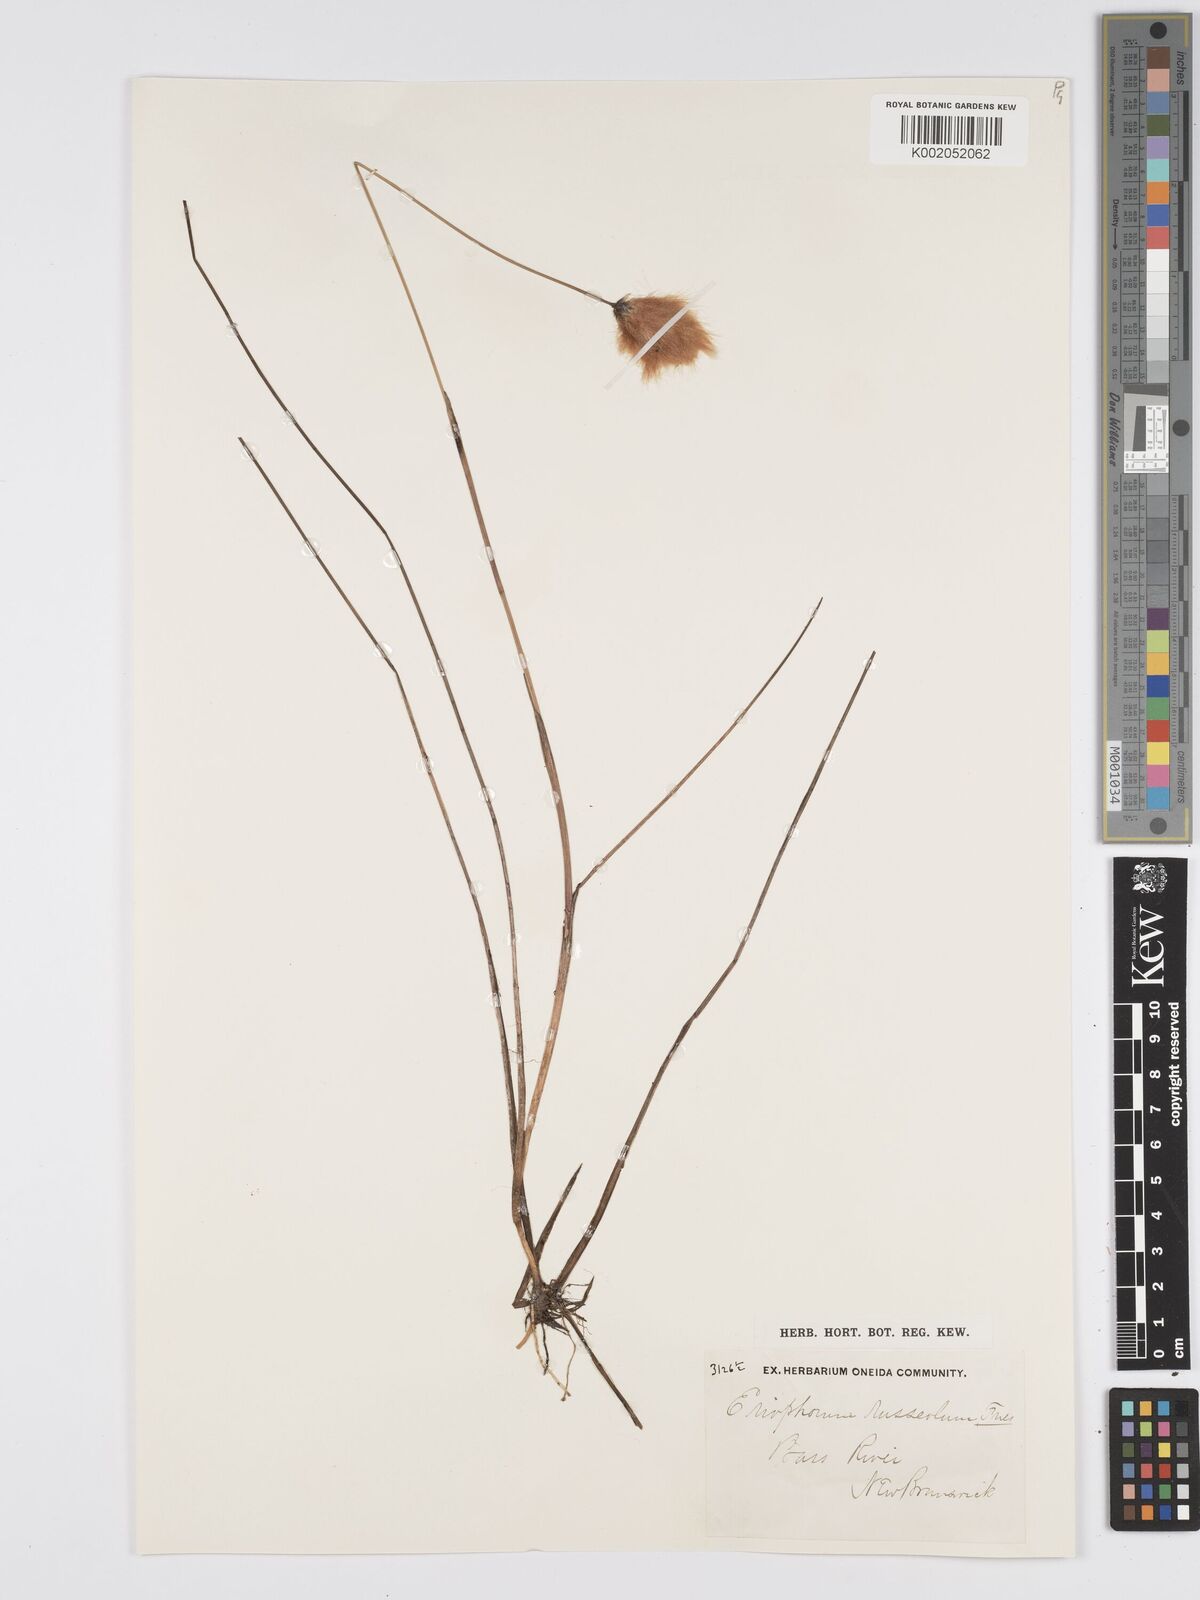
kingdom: Plantae
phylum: Tracheophyta
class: Liliopsida
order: Poales
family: Cyperaceae
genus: Eriophorum
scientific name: Eriophorum
